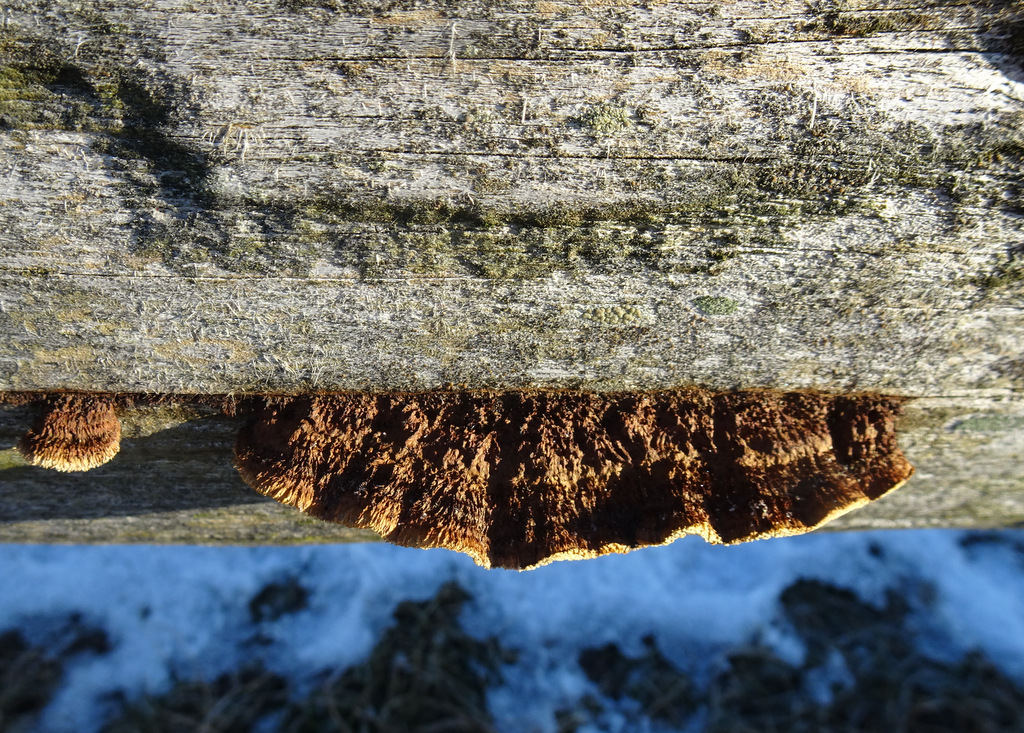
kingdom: Fungi
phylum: Basidiomycota
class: Agaricomycetes
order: Gloeophyllales
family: Gloeophyllaceae
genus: Gloeophyllum
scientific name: Gloeophyllum sepiarium
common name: fyrre-korkhat
